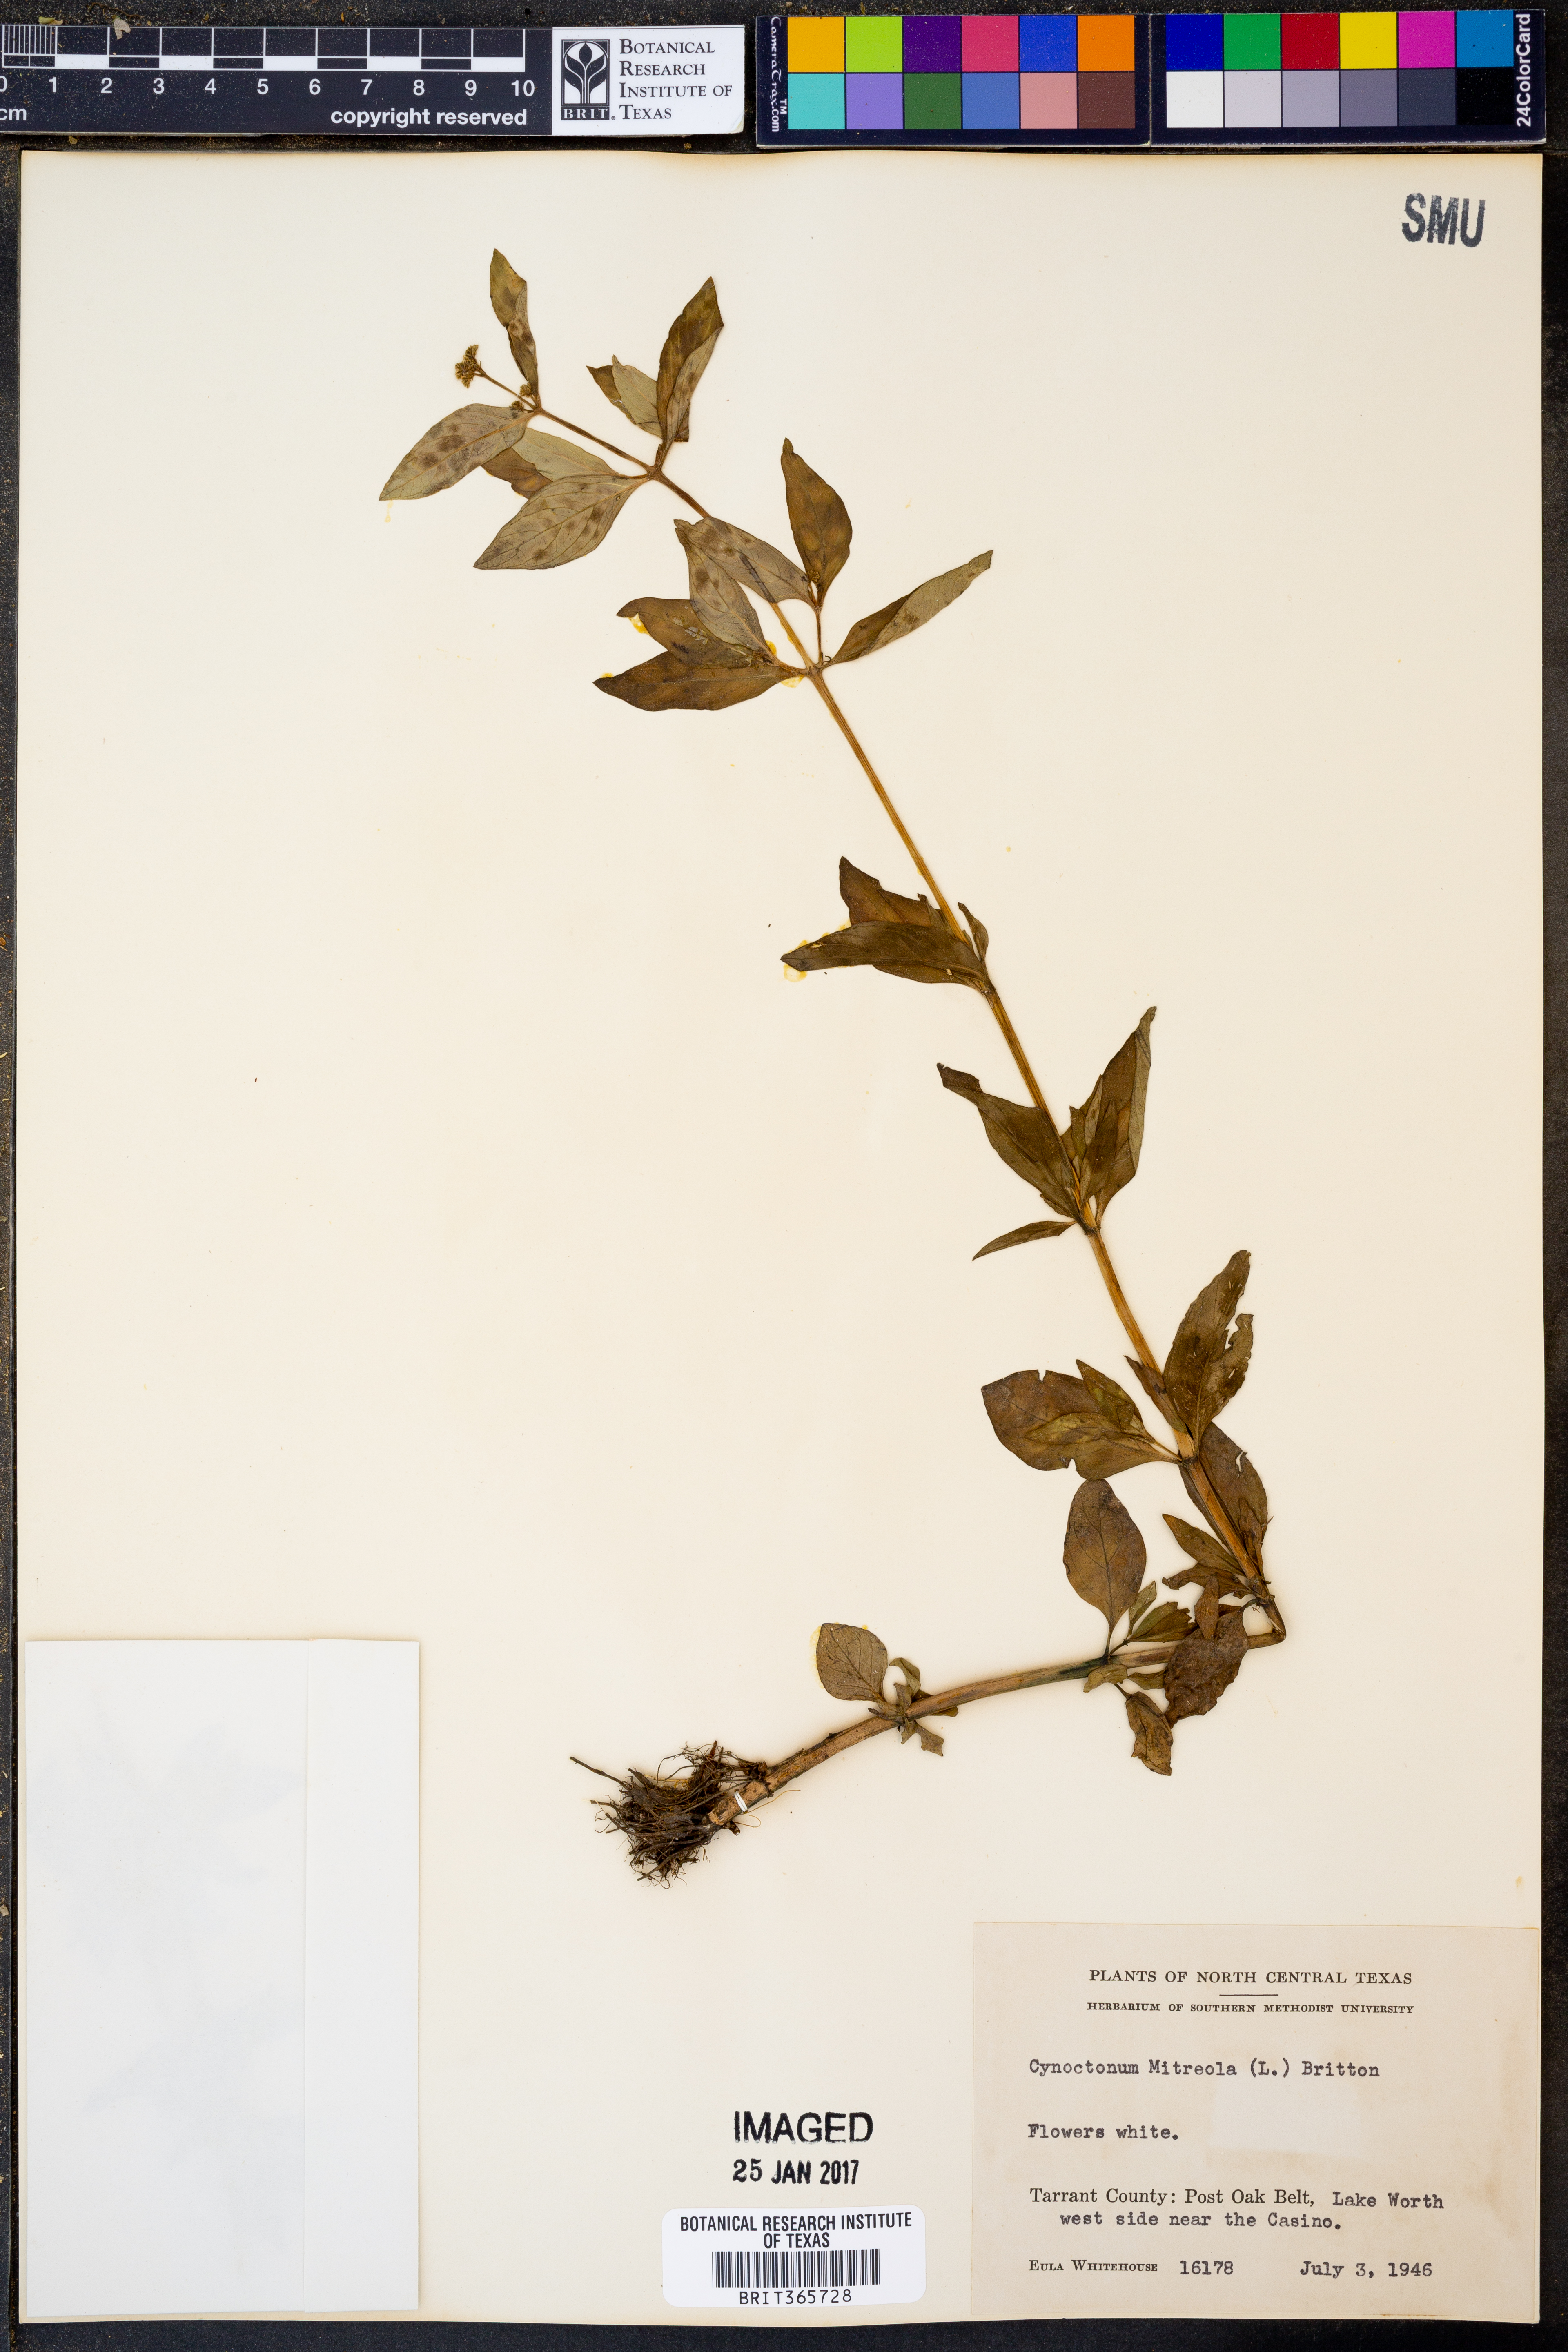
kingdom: Plantae
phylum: Tracheophyta
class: Magnoliopsida
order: Gentianales
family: Loganiaceae
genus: Mitreola
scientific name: Mitreola petiolata
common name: Lax hornpod
